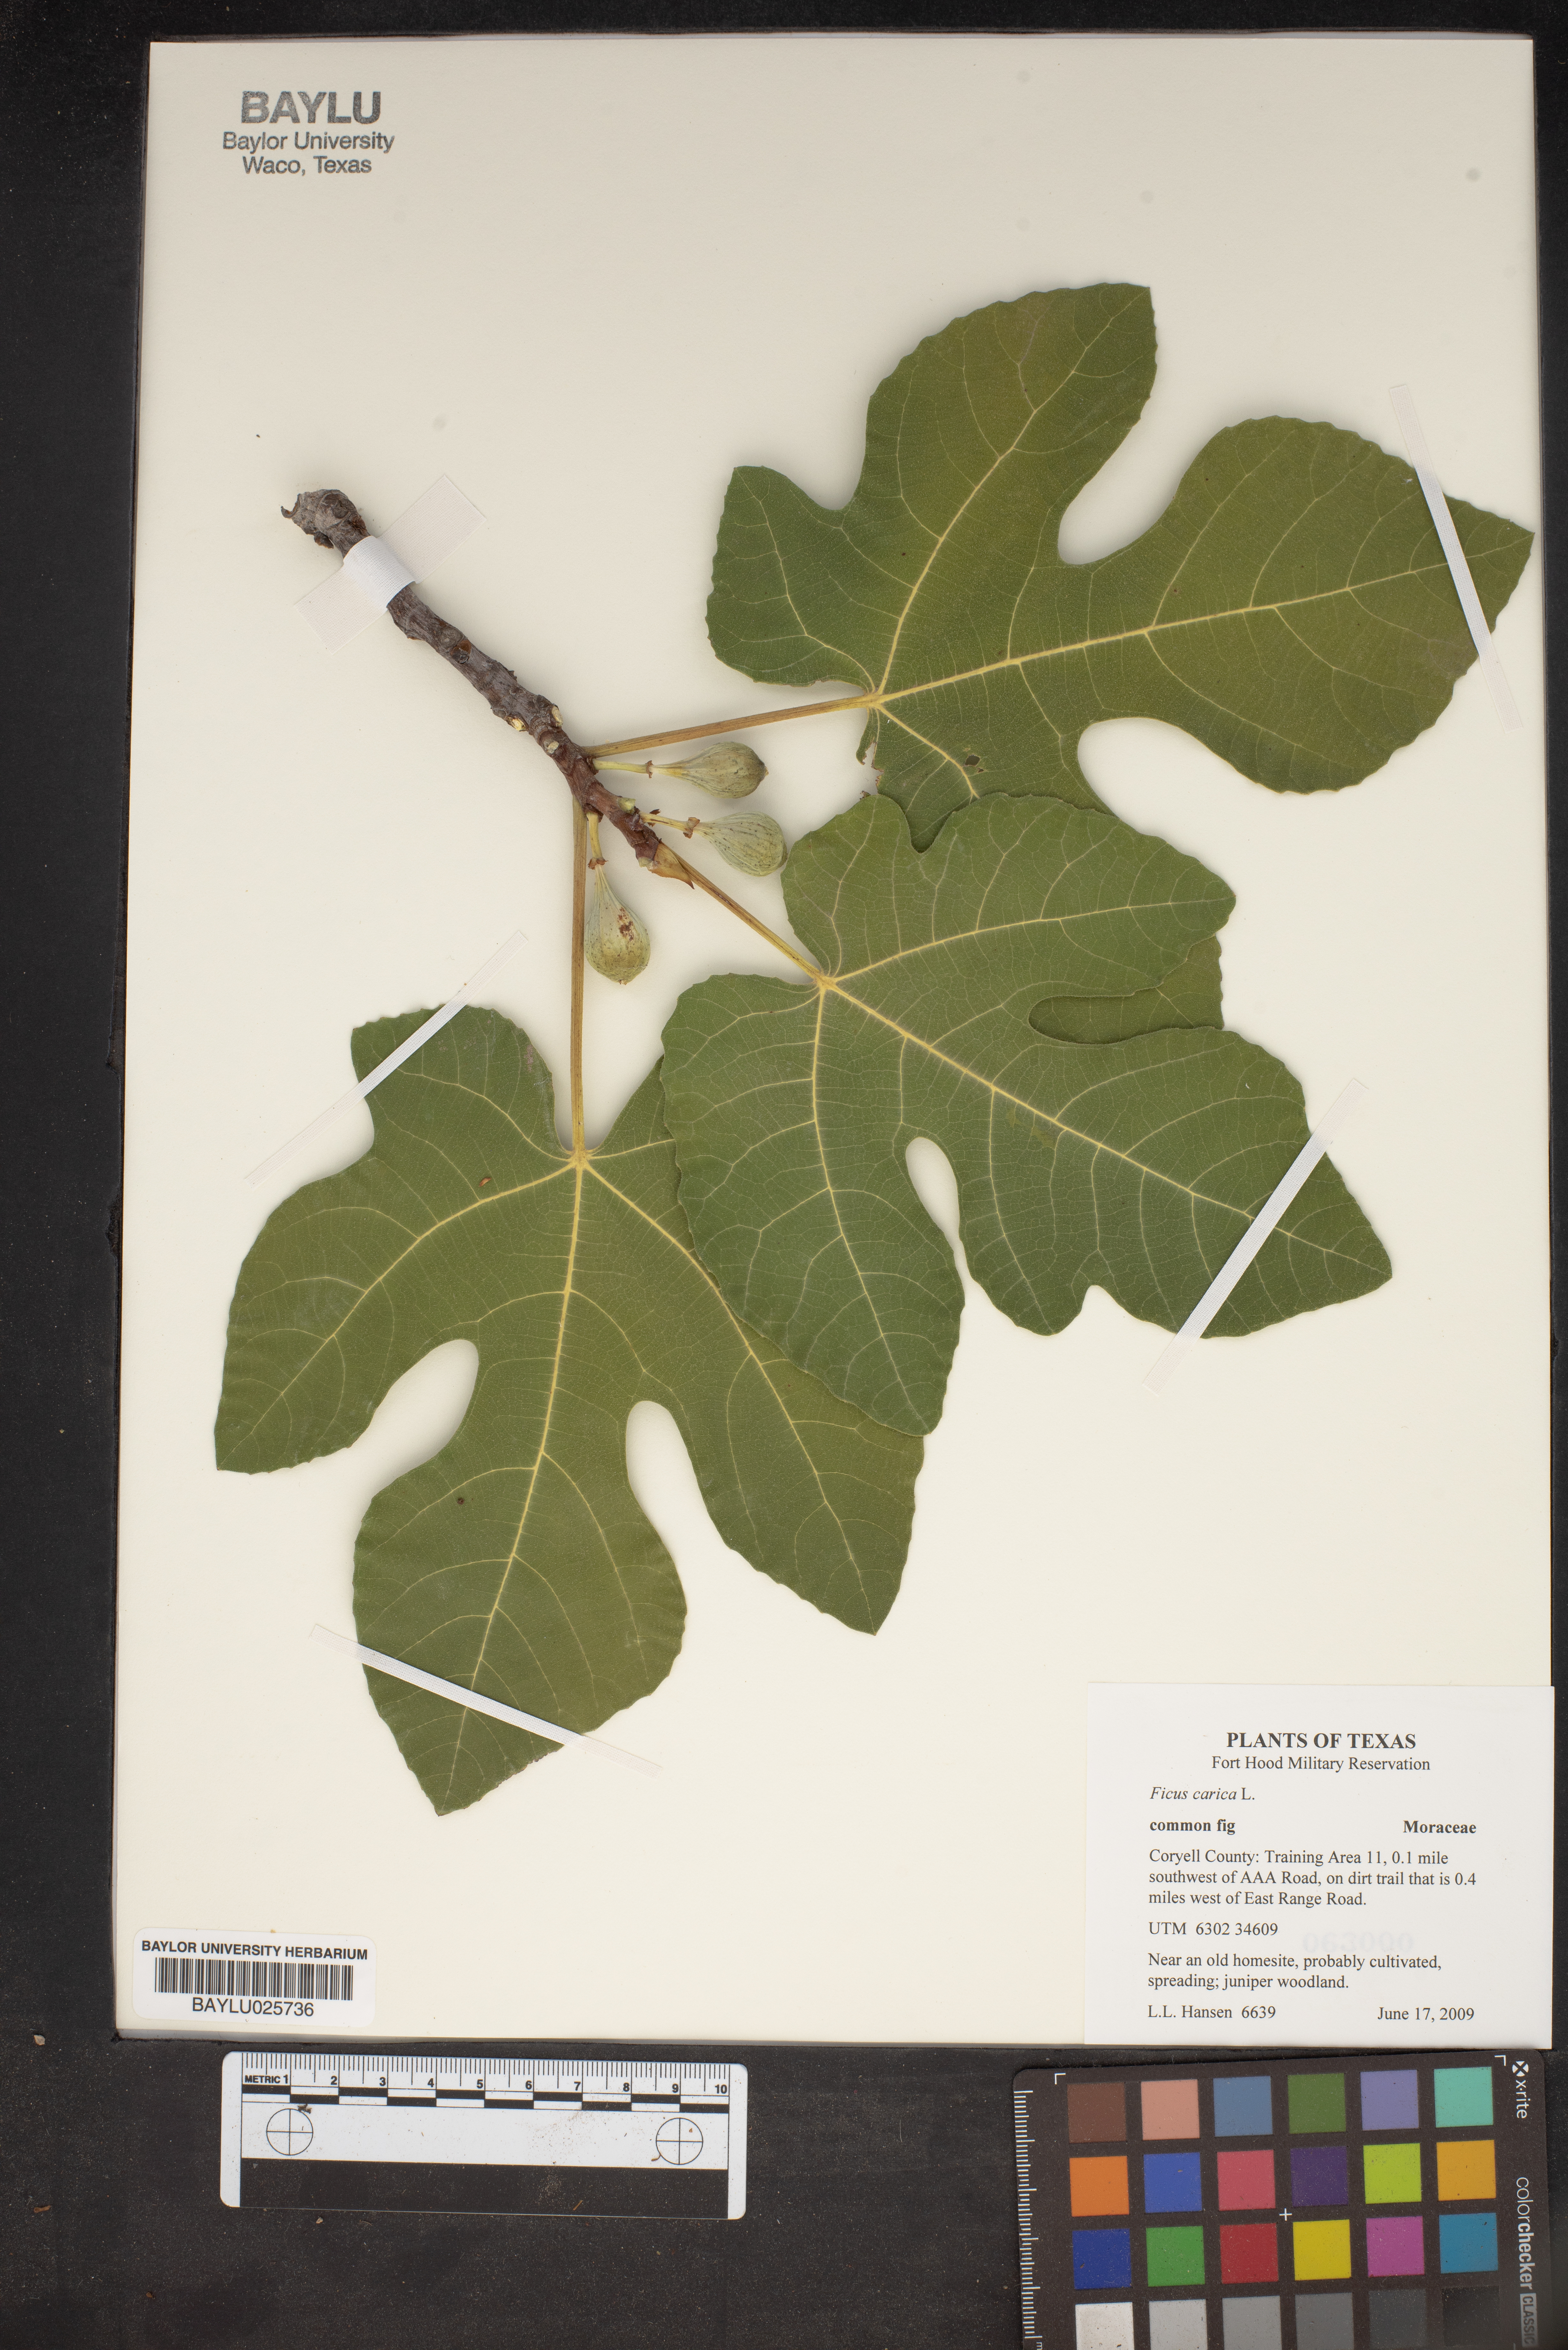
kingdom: Plantae
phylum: Tracheophyta
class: Magnoliopsida
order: Rosales
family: Moraceae
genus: Ficus
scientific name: Ficus carica
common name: Fig
